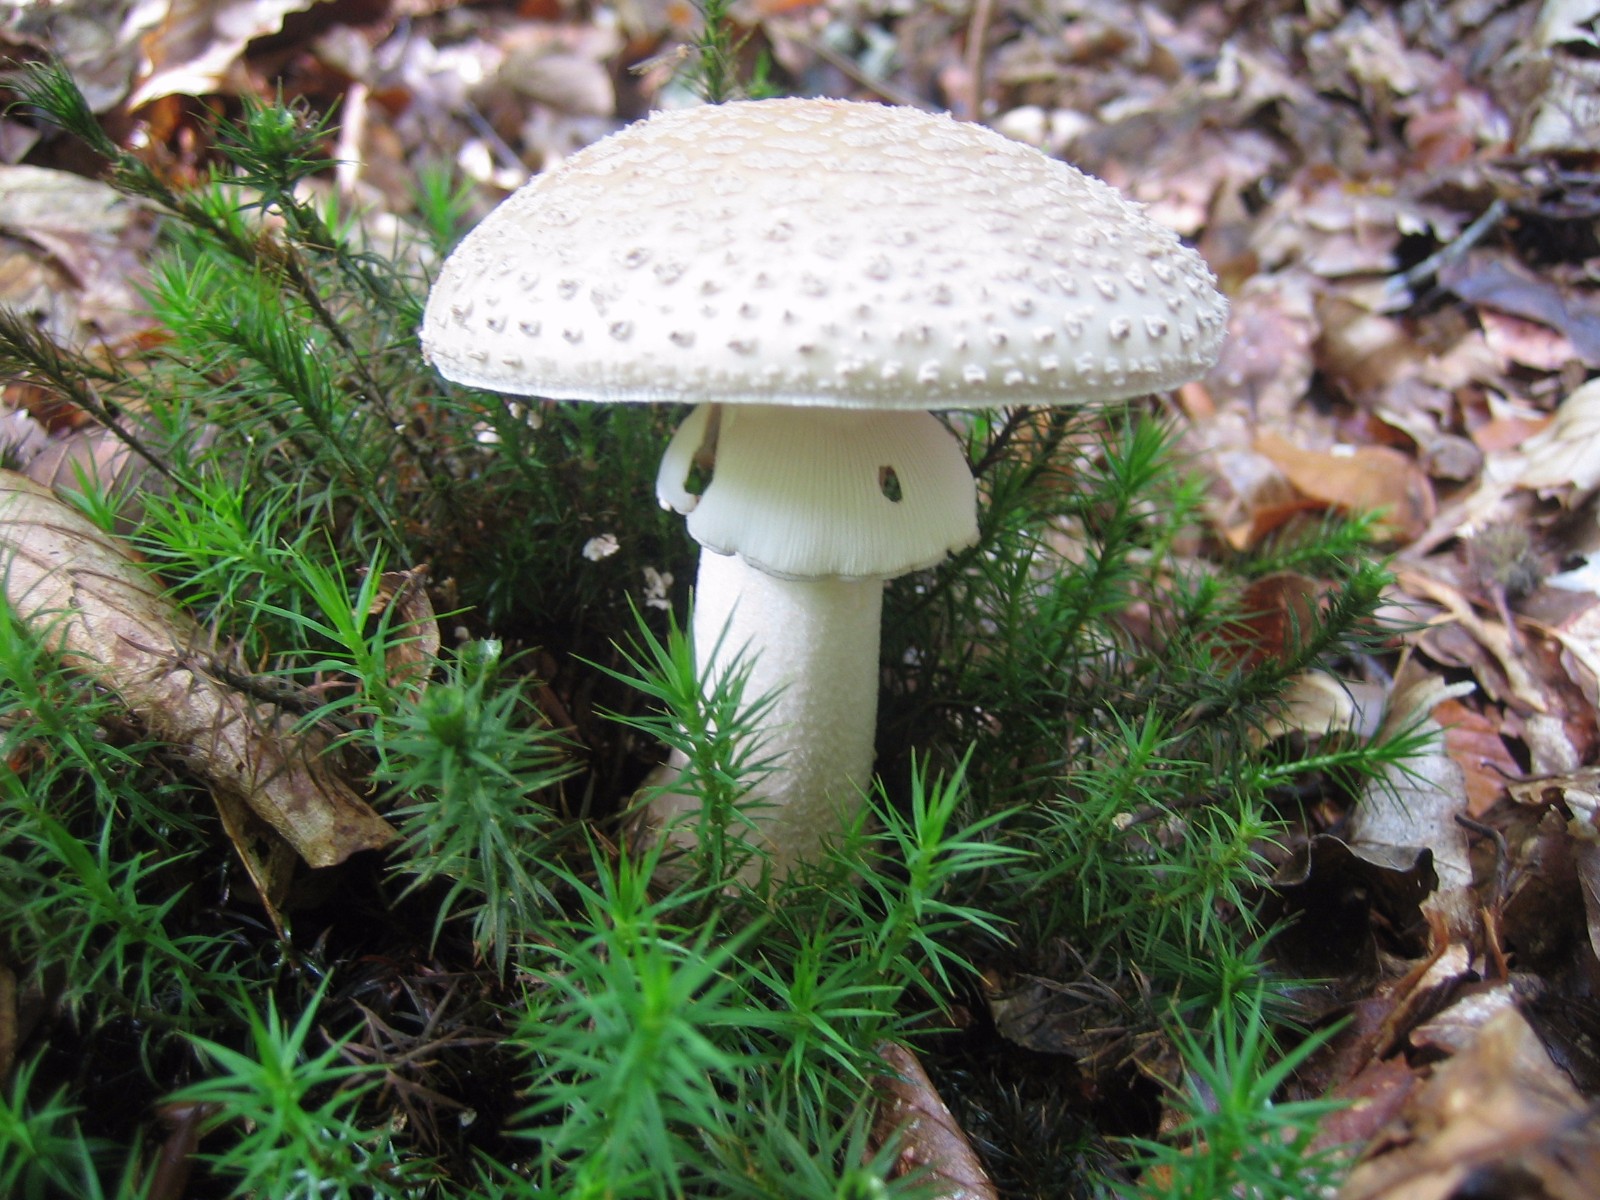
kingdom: Fungi
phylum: Basidiomycota
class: Agaricomycetes
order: Agaricales
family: Amanitaceae
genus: Amanita
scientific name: Amanita rubescens
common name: rødmende fluesvamp
